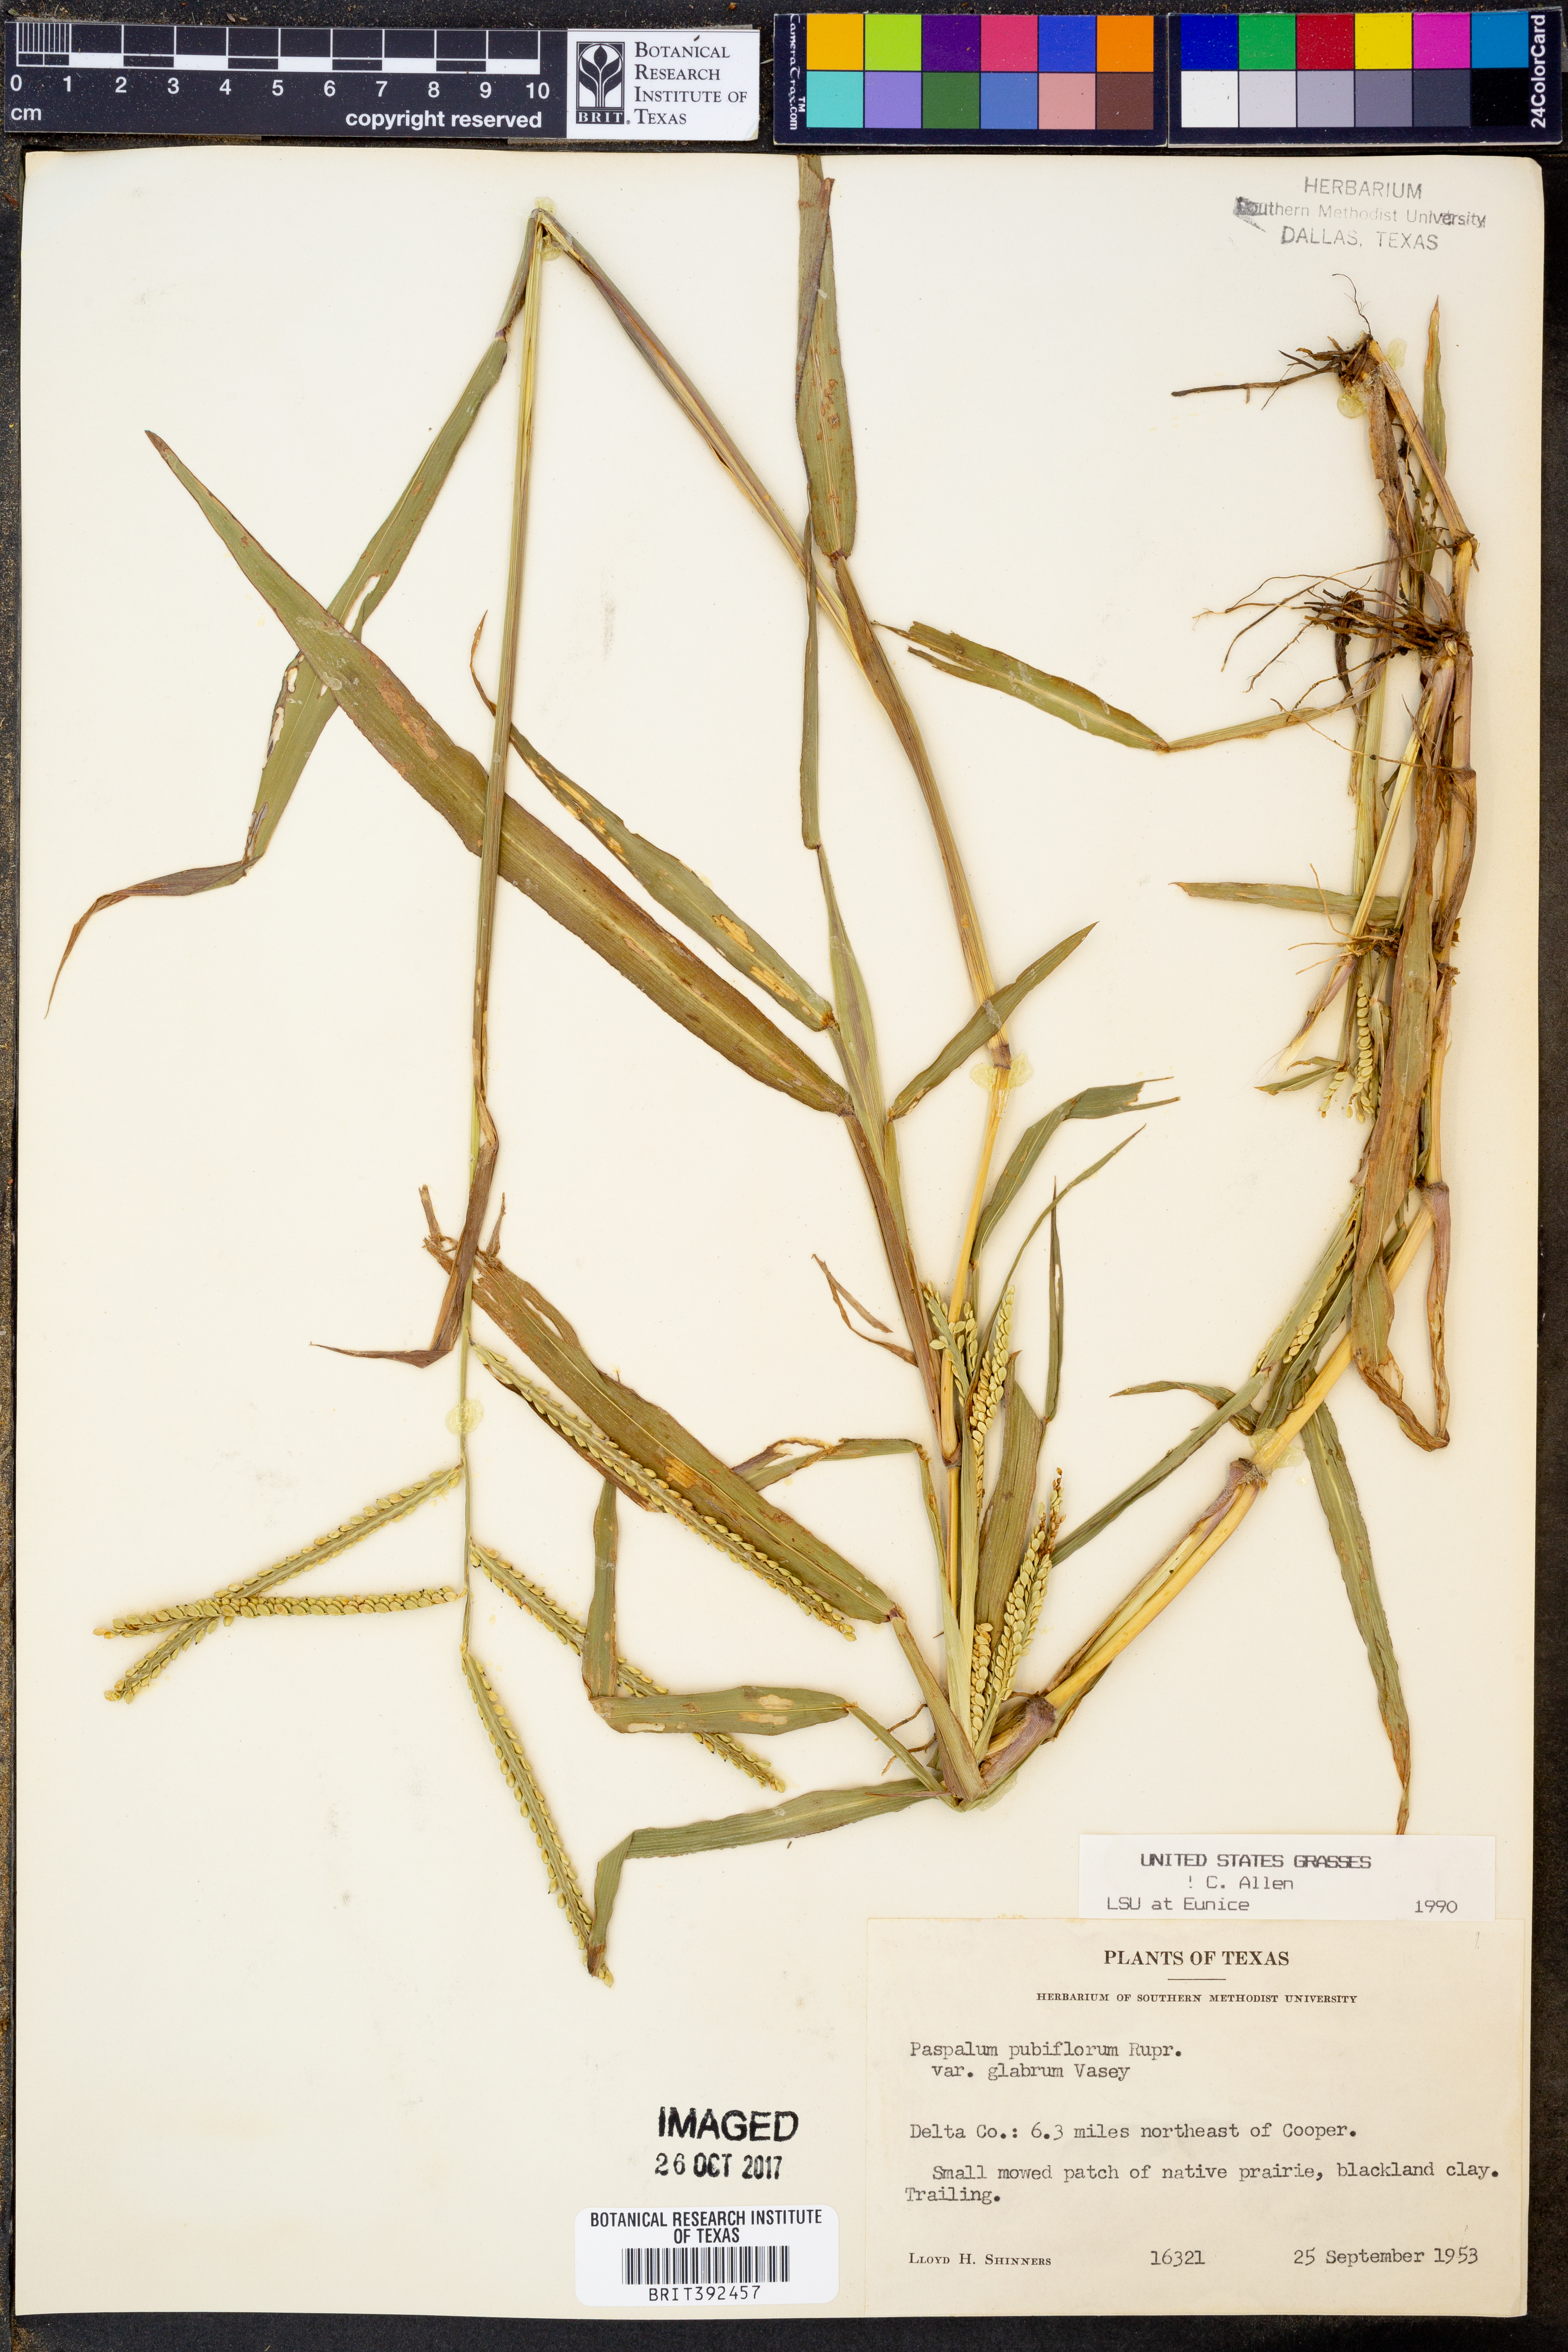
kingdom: Plantae
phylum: Tracheophyta
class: Liliopsida
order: Poales
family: Poaceae
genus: Paspalum
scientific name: Paspalum pubiflorum
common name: Hairy-seed paspalum
